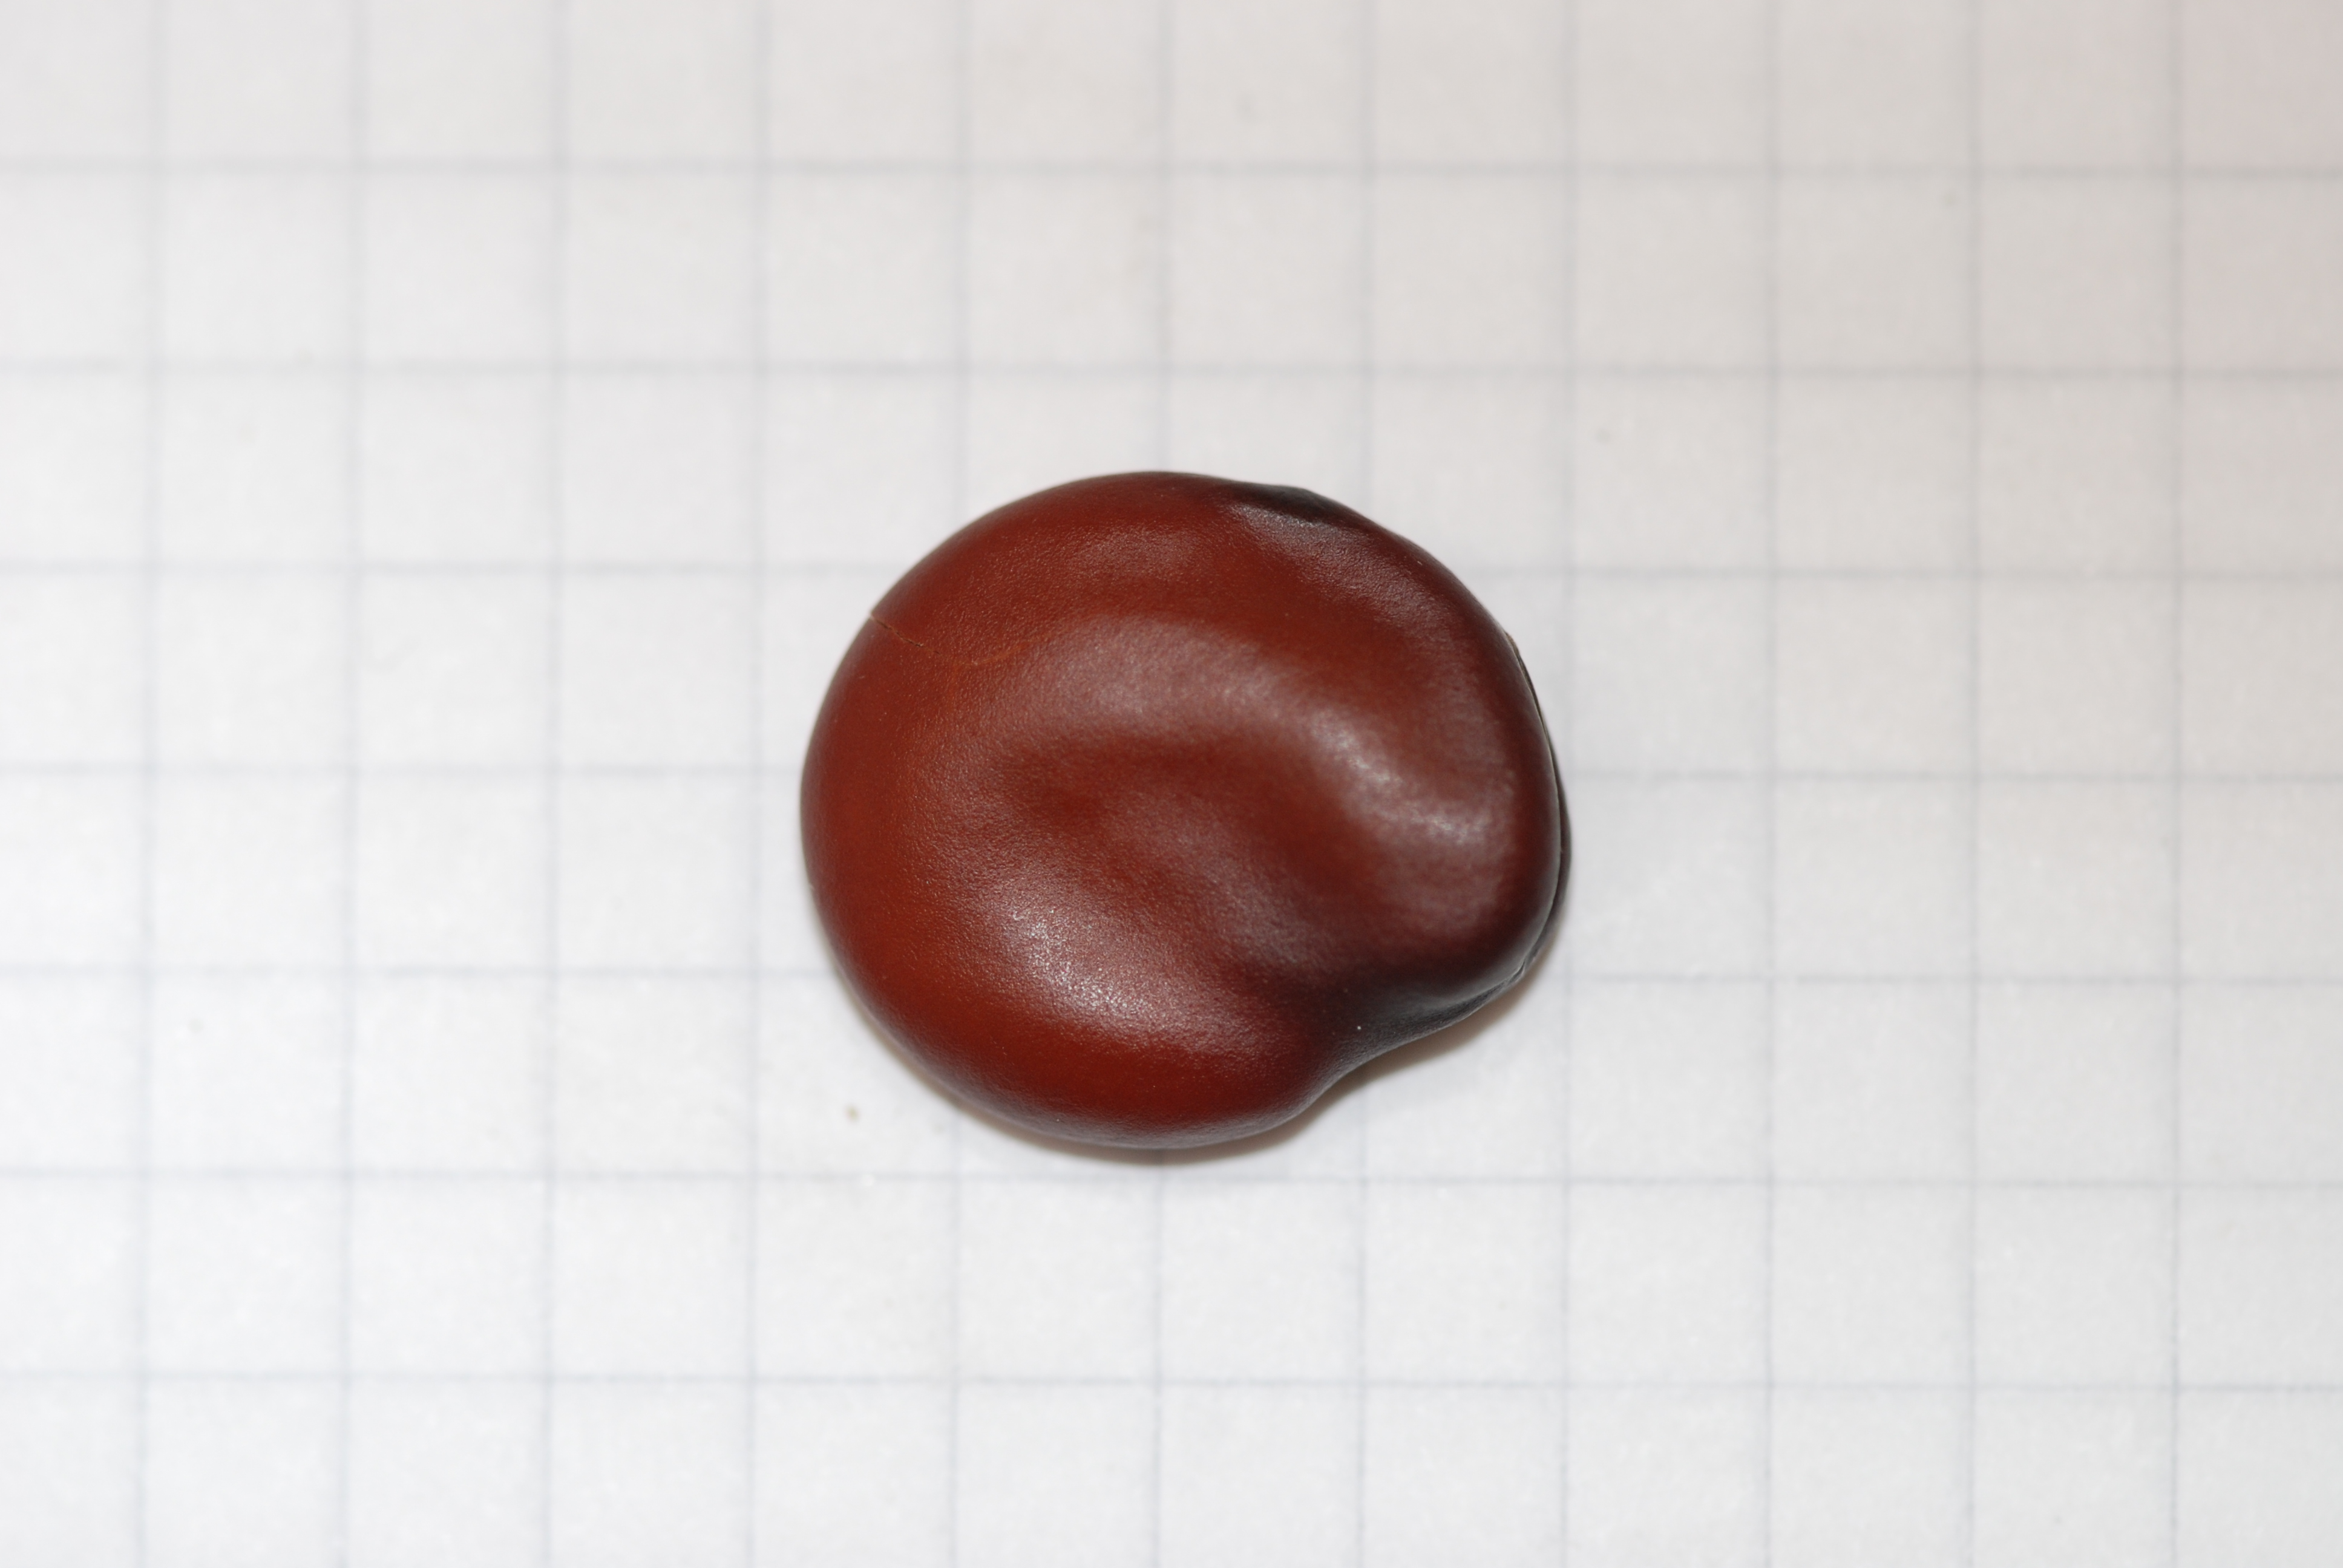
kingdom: Plantae
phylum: Tracheophyta
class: Magnoliopsida
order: Fabales
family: Fabaceae
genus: Vicia
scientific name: Vicia faba
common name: Broad bean
